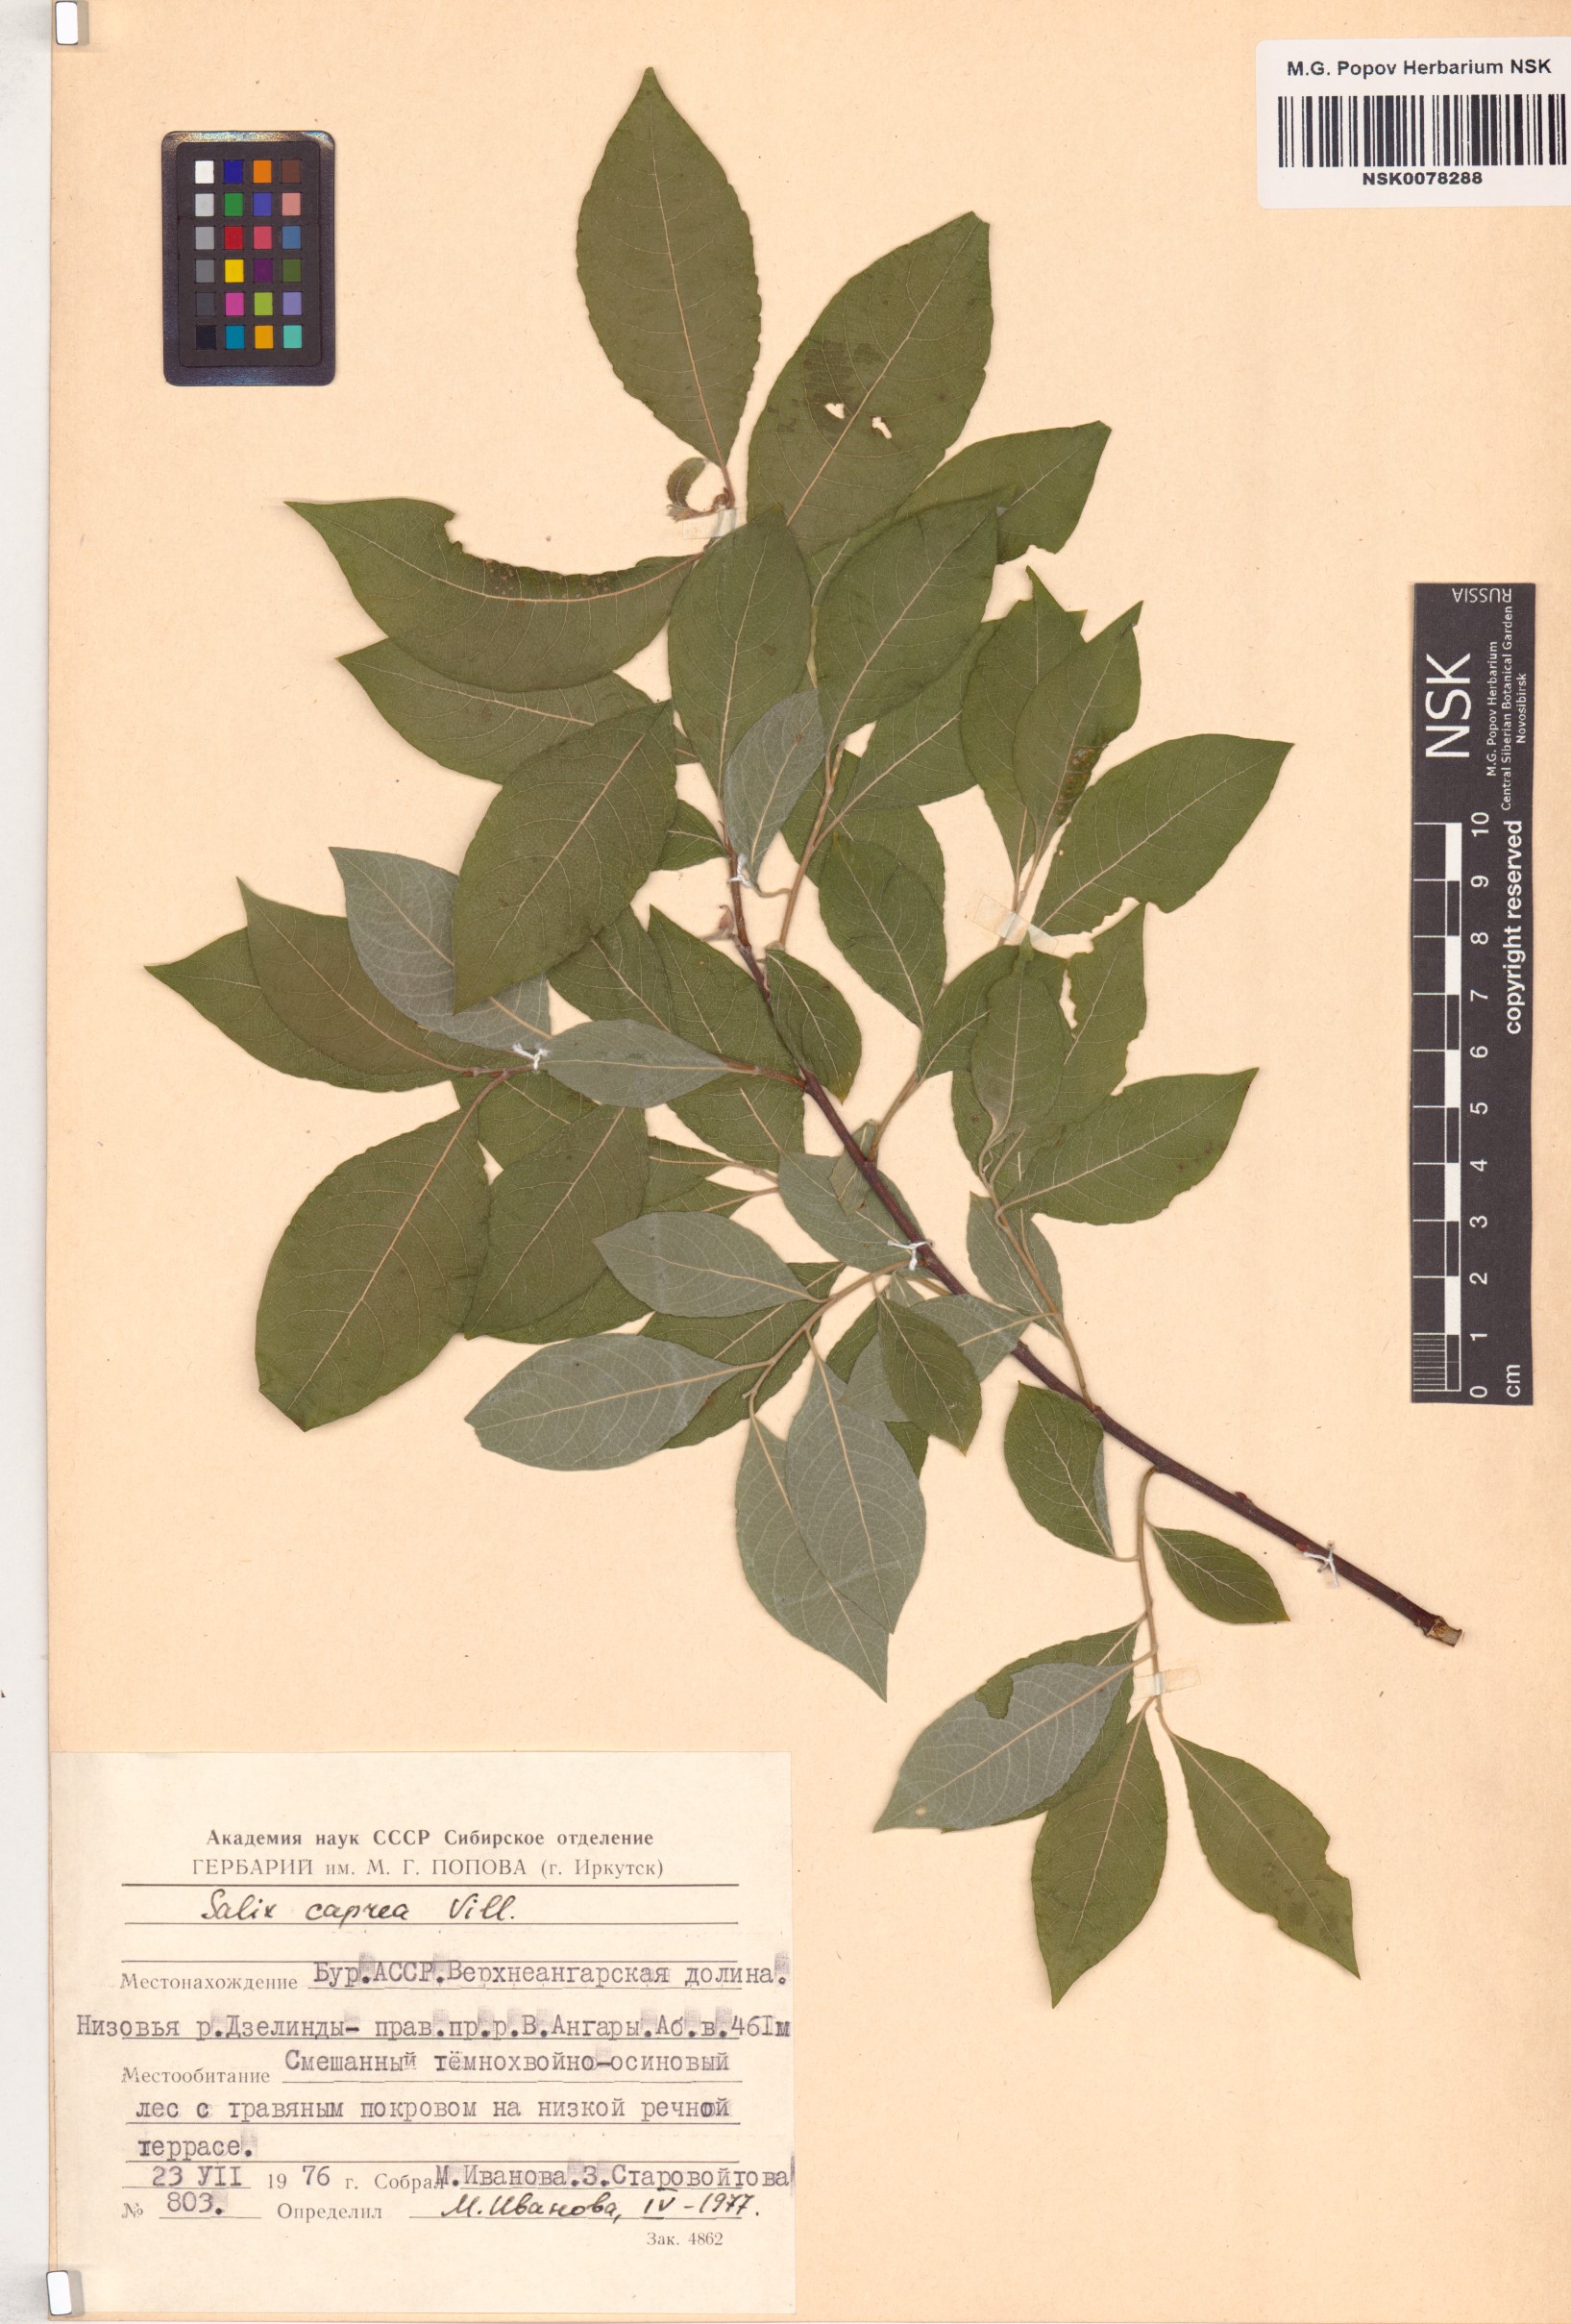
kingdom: Plantae
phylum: Tracheophyta
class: Magnoliopsida
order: Malpighiales
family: Salicaceae
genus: Salix
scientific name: Salix caprea
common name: Goat willow
